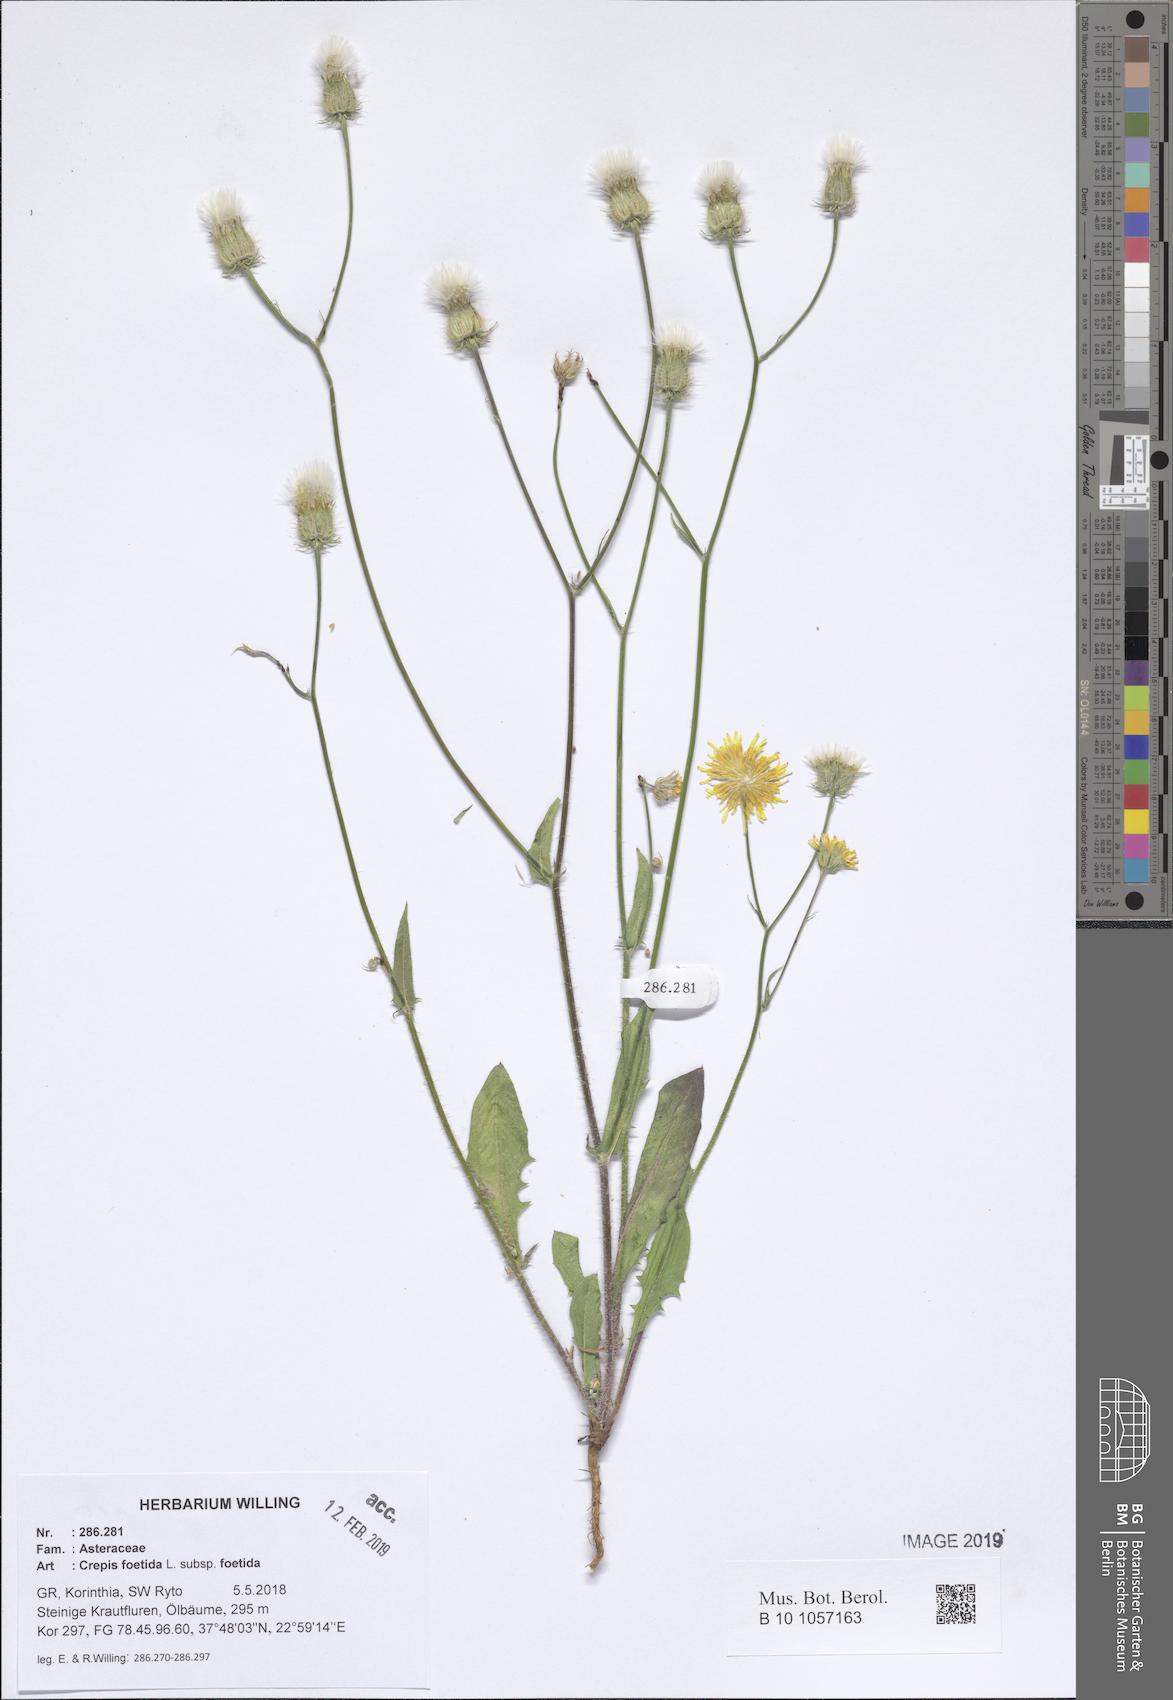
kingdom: Plantae
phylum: Tracheophyta
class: Magnoliopsida
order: Asterales
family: Asteraceae
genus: Crepis
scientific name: Crepis foetida
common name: Stinking hawk's-beard
